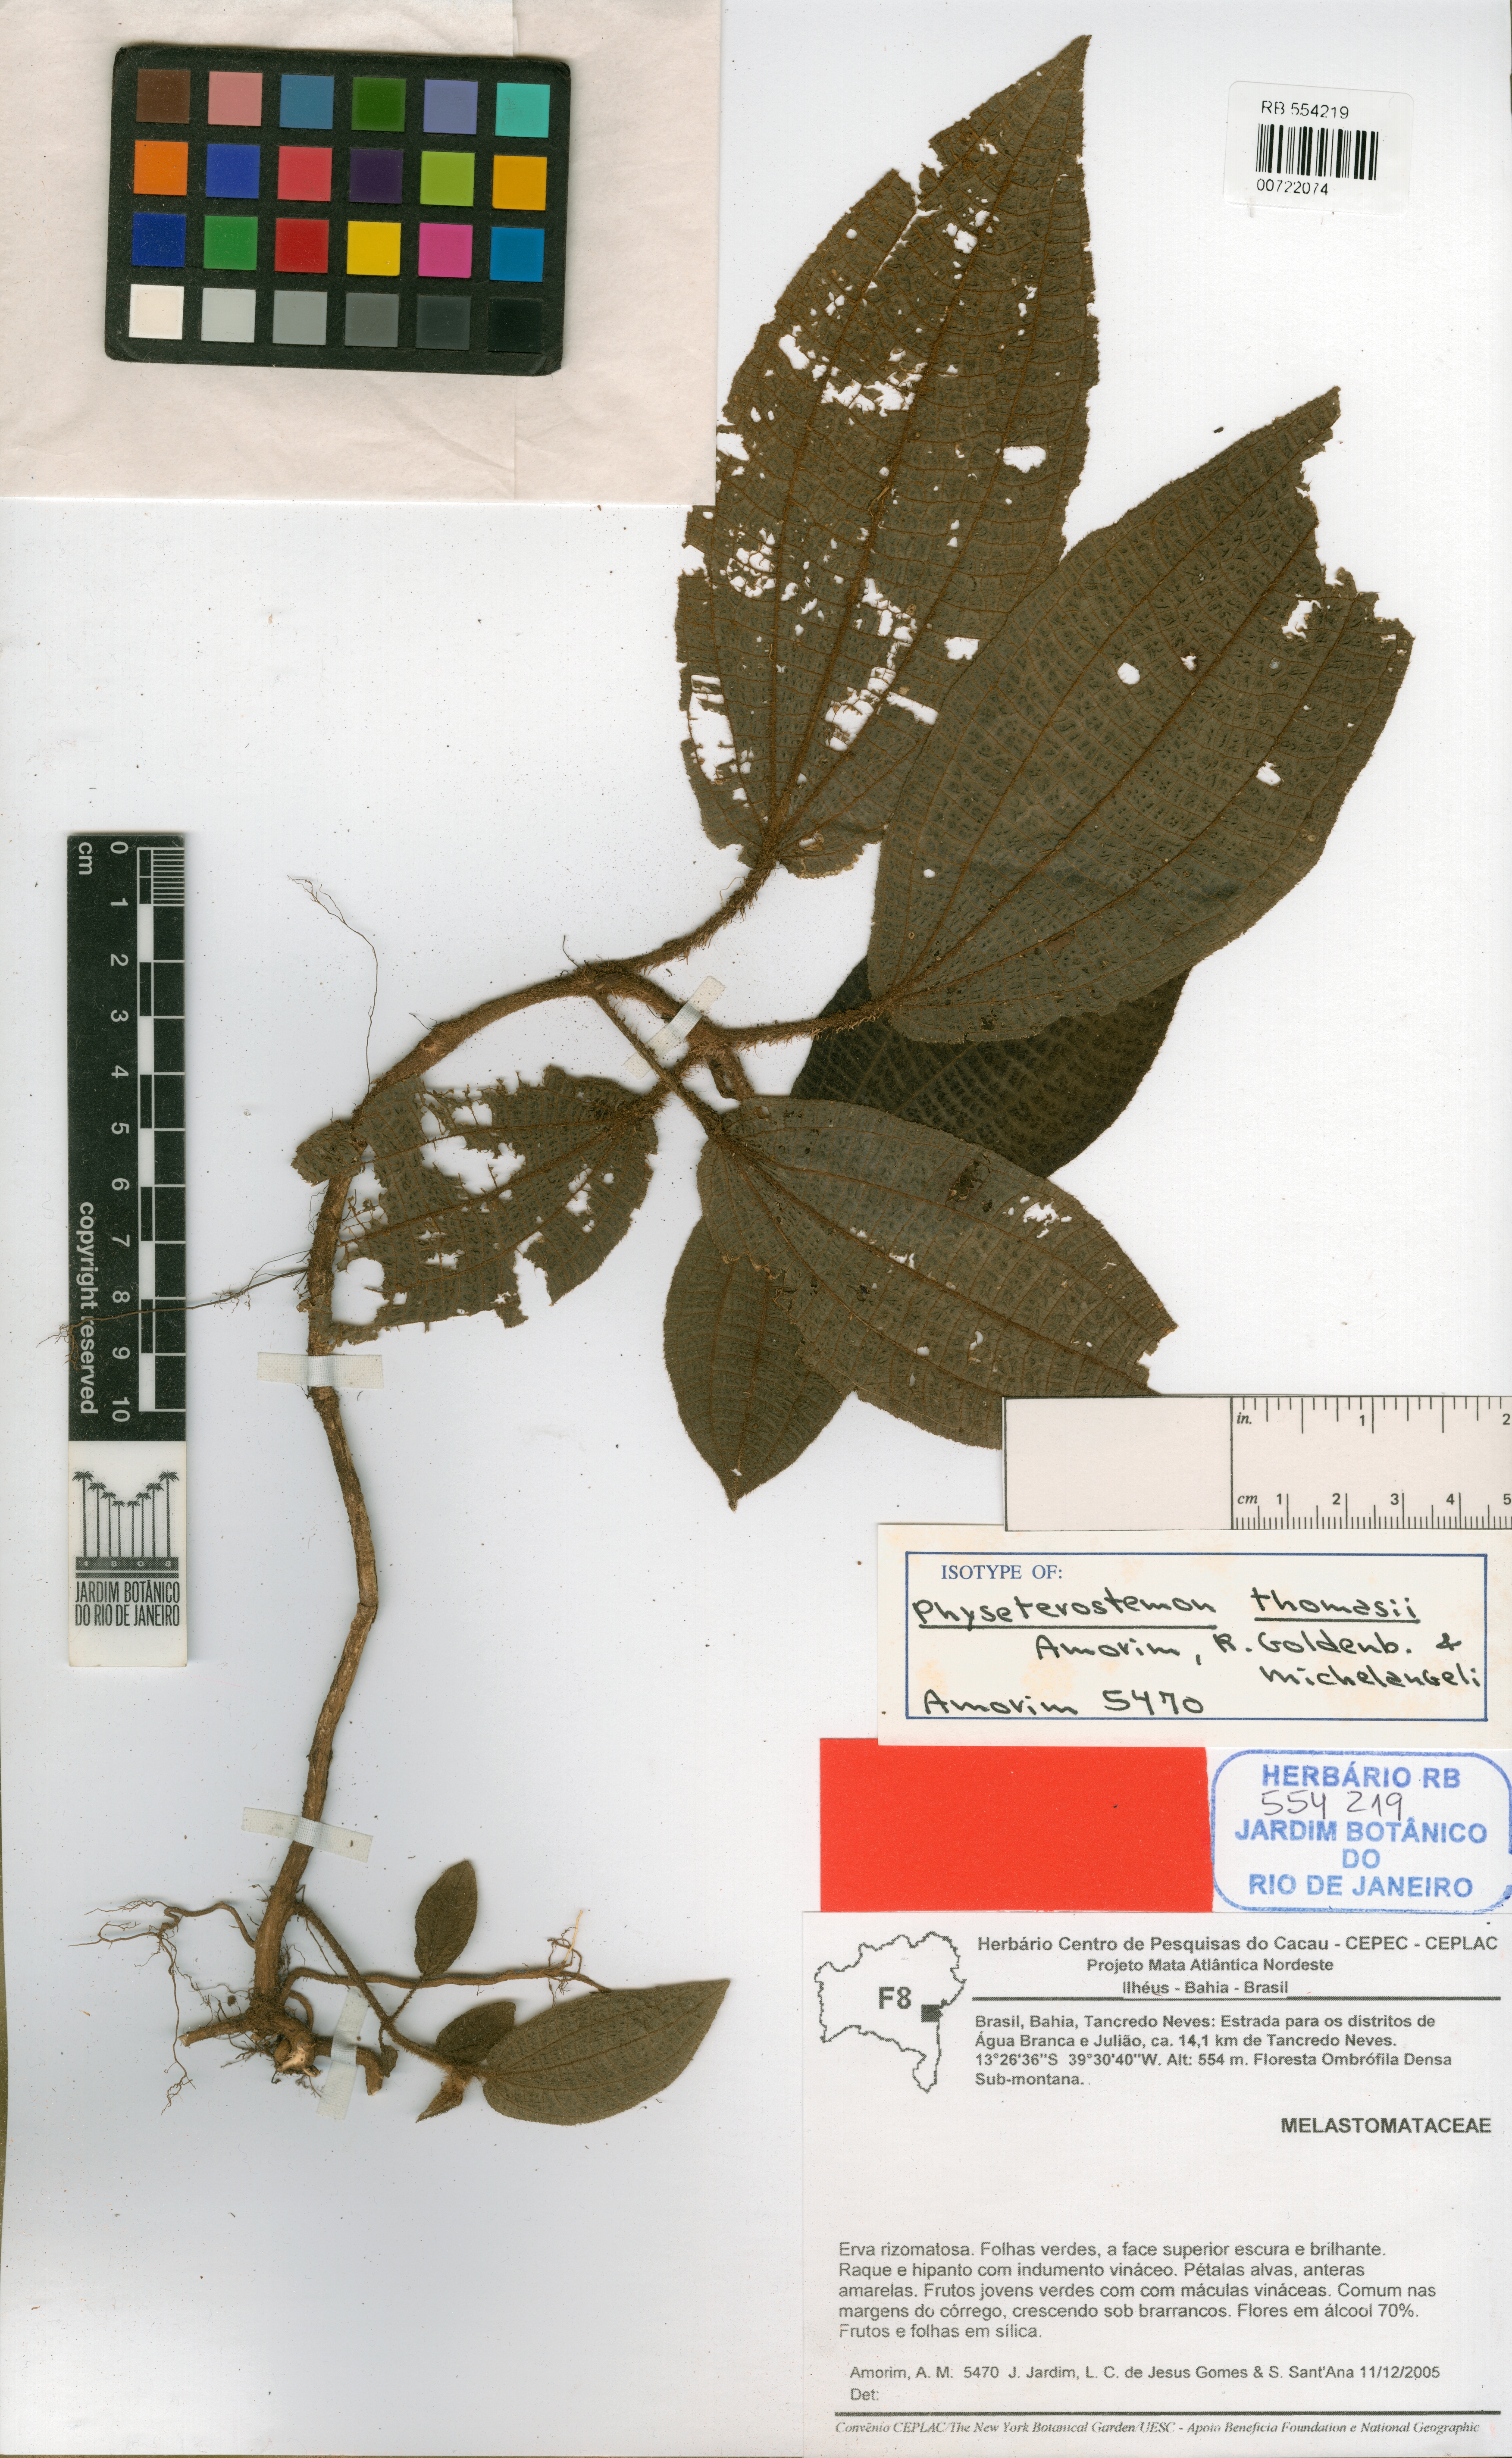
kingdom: Plantae
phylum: Tracheophyta
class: Magnoliopsida
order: Myrtales
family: Melastomataceae
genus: Physeterostemon
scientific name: Physeterostemon thomasii
